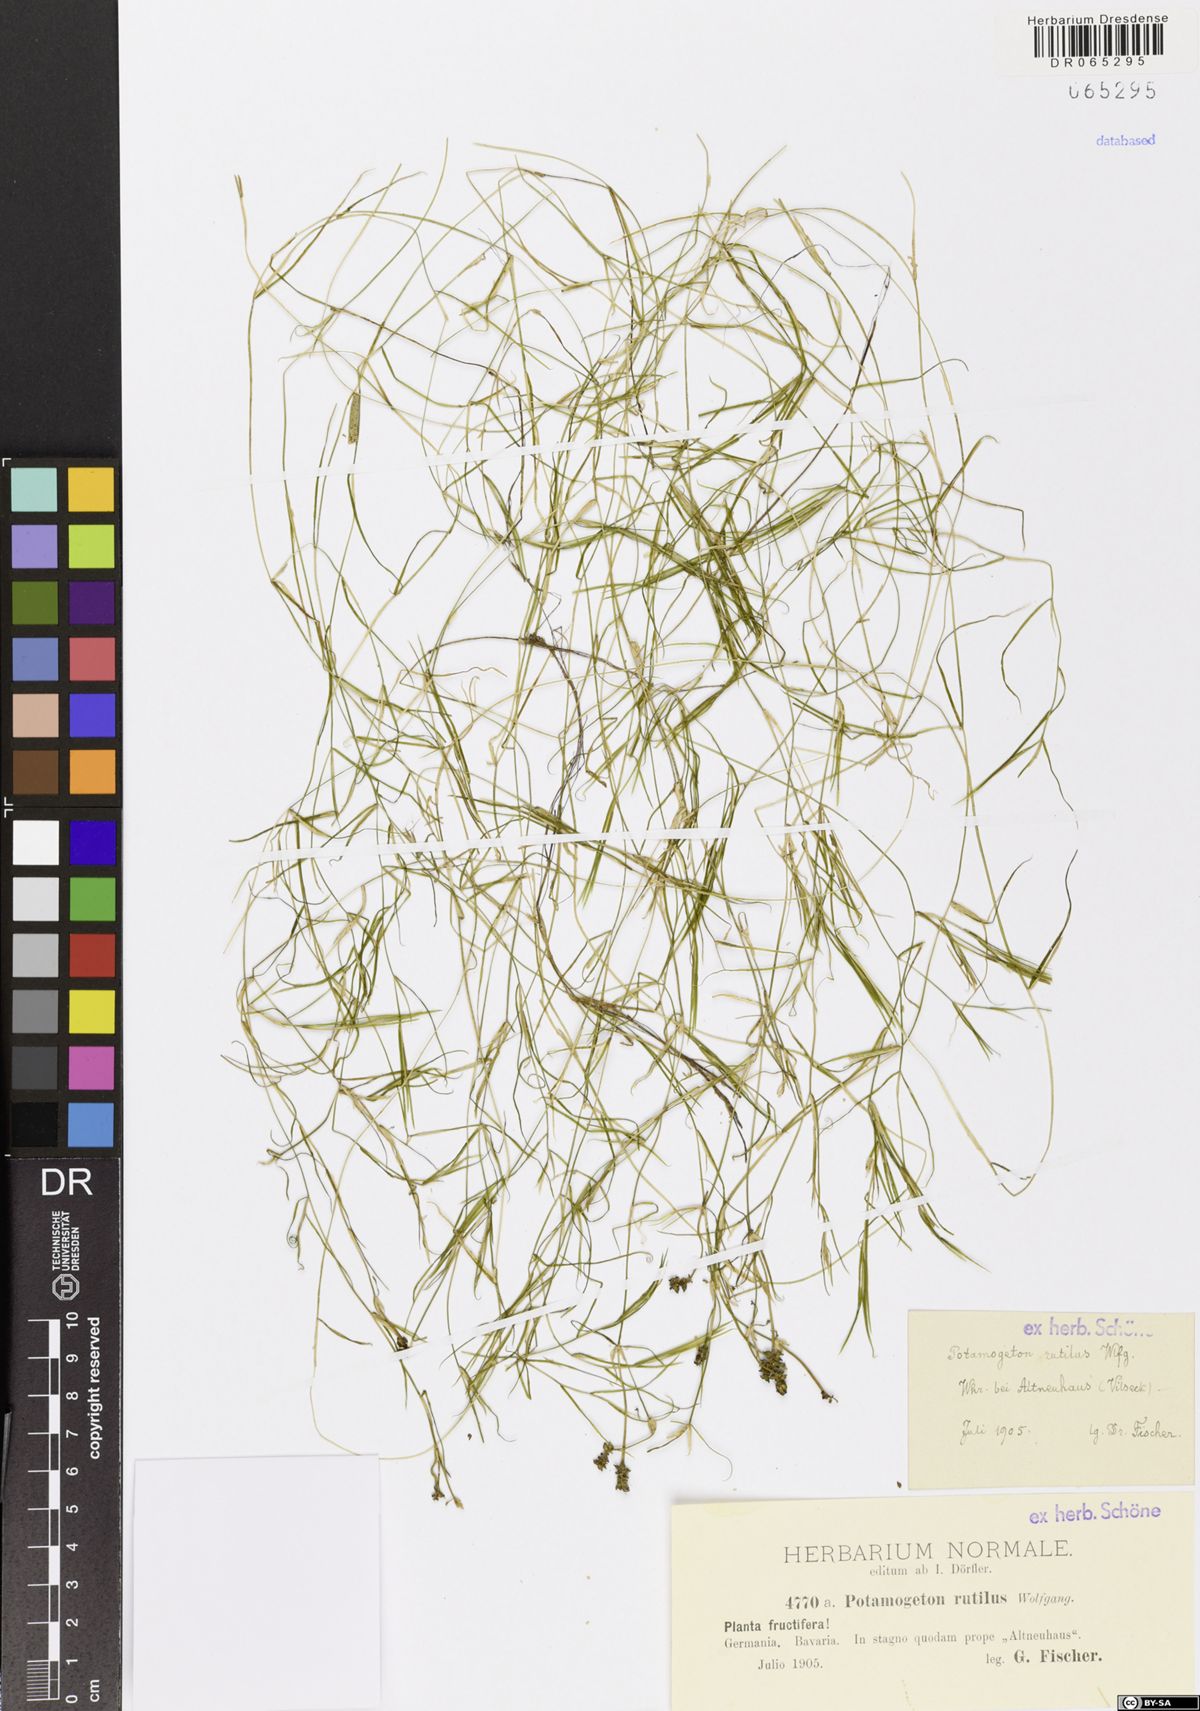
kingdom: Plantae
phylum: Tracheophyta
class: Liliopsida
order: Alismatales
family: Potamogetonaceae
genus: Potamogeton
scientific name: Potamogeton rutilus
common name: Shetland pondweed
